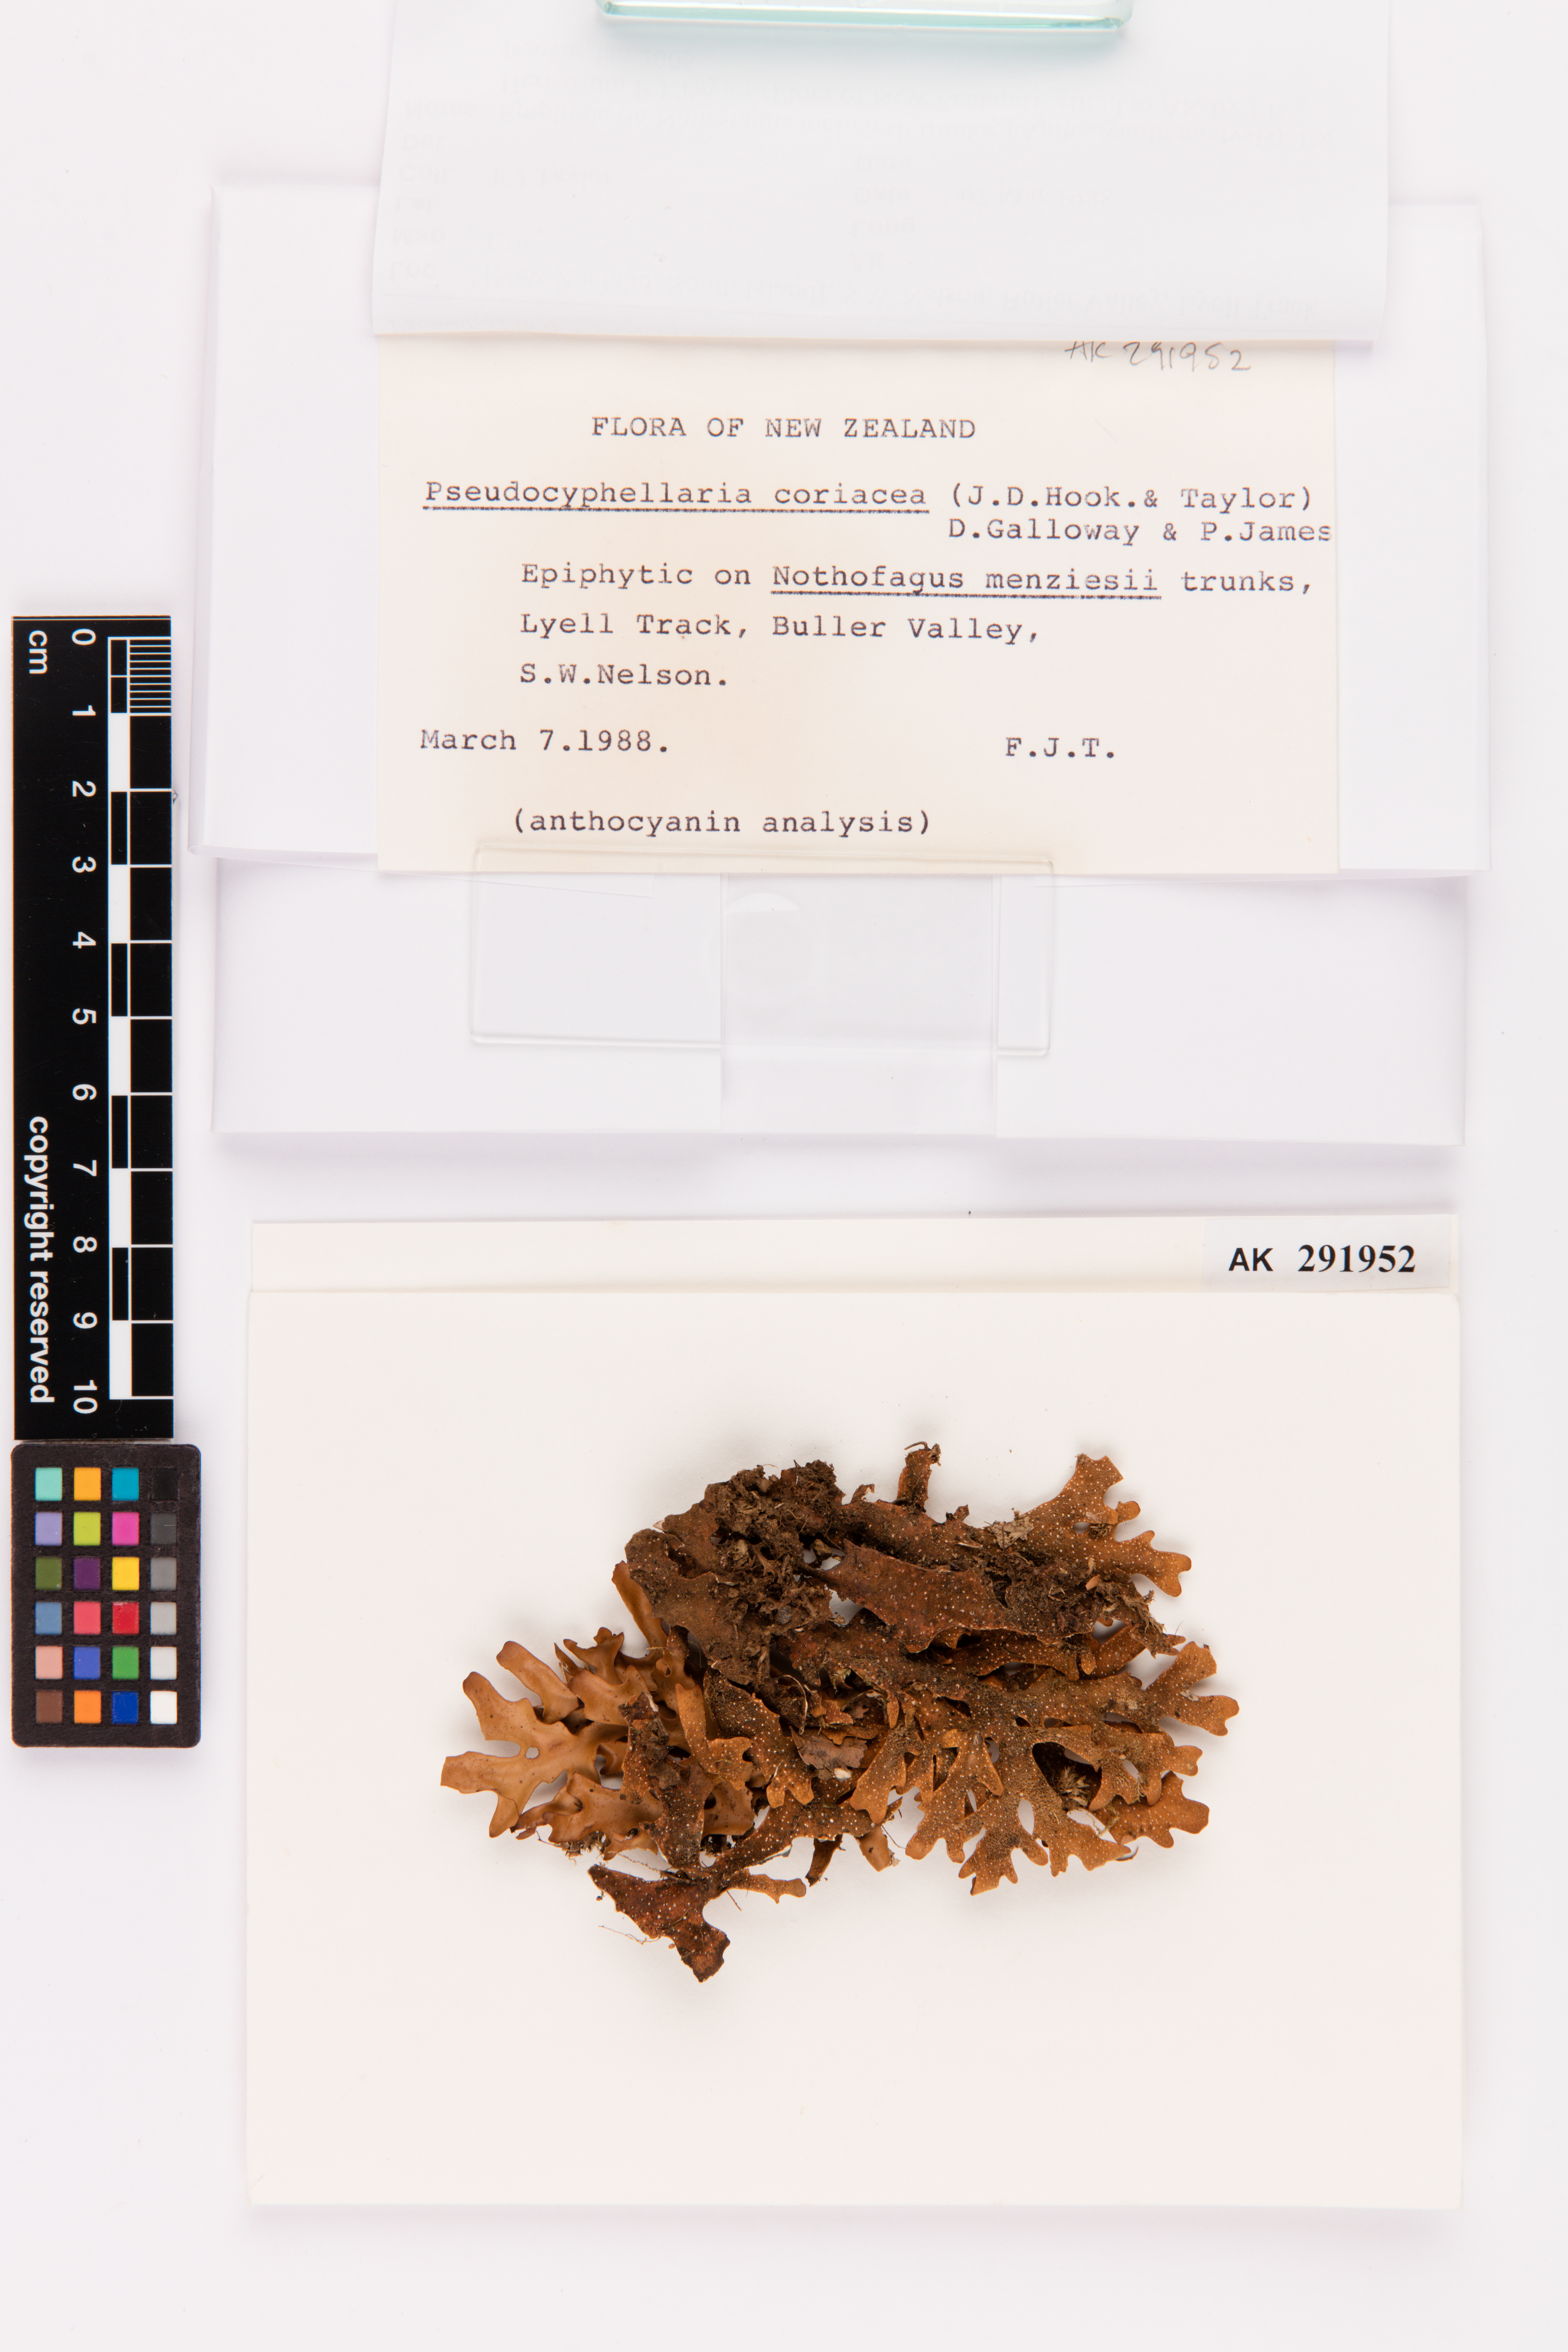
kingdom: Fungi
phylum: Ascomycota
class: Lecanoromycetes
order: Peltigerales
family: Lobariaceae
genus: Pseudocyphellaria
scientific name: Pseudocyphellaria coriacea
